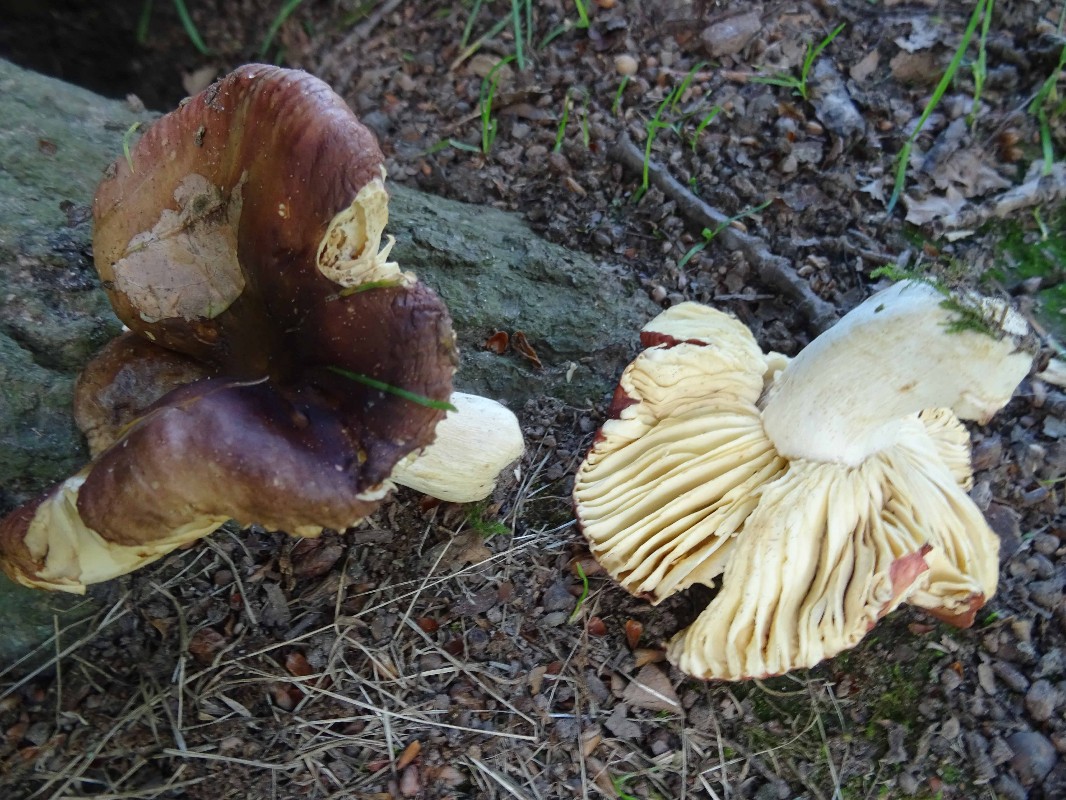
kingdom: Fungi
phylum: Basidiomycota
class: Agaricomycetes
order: Russulales
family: Russulaceae
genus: Russula
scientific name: Russula graveolens
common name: bugtet skørhat
